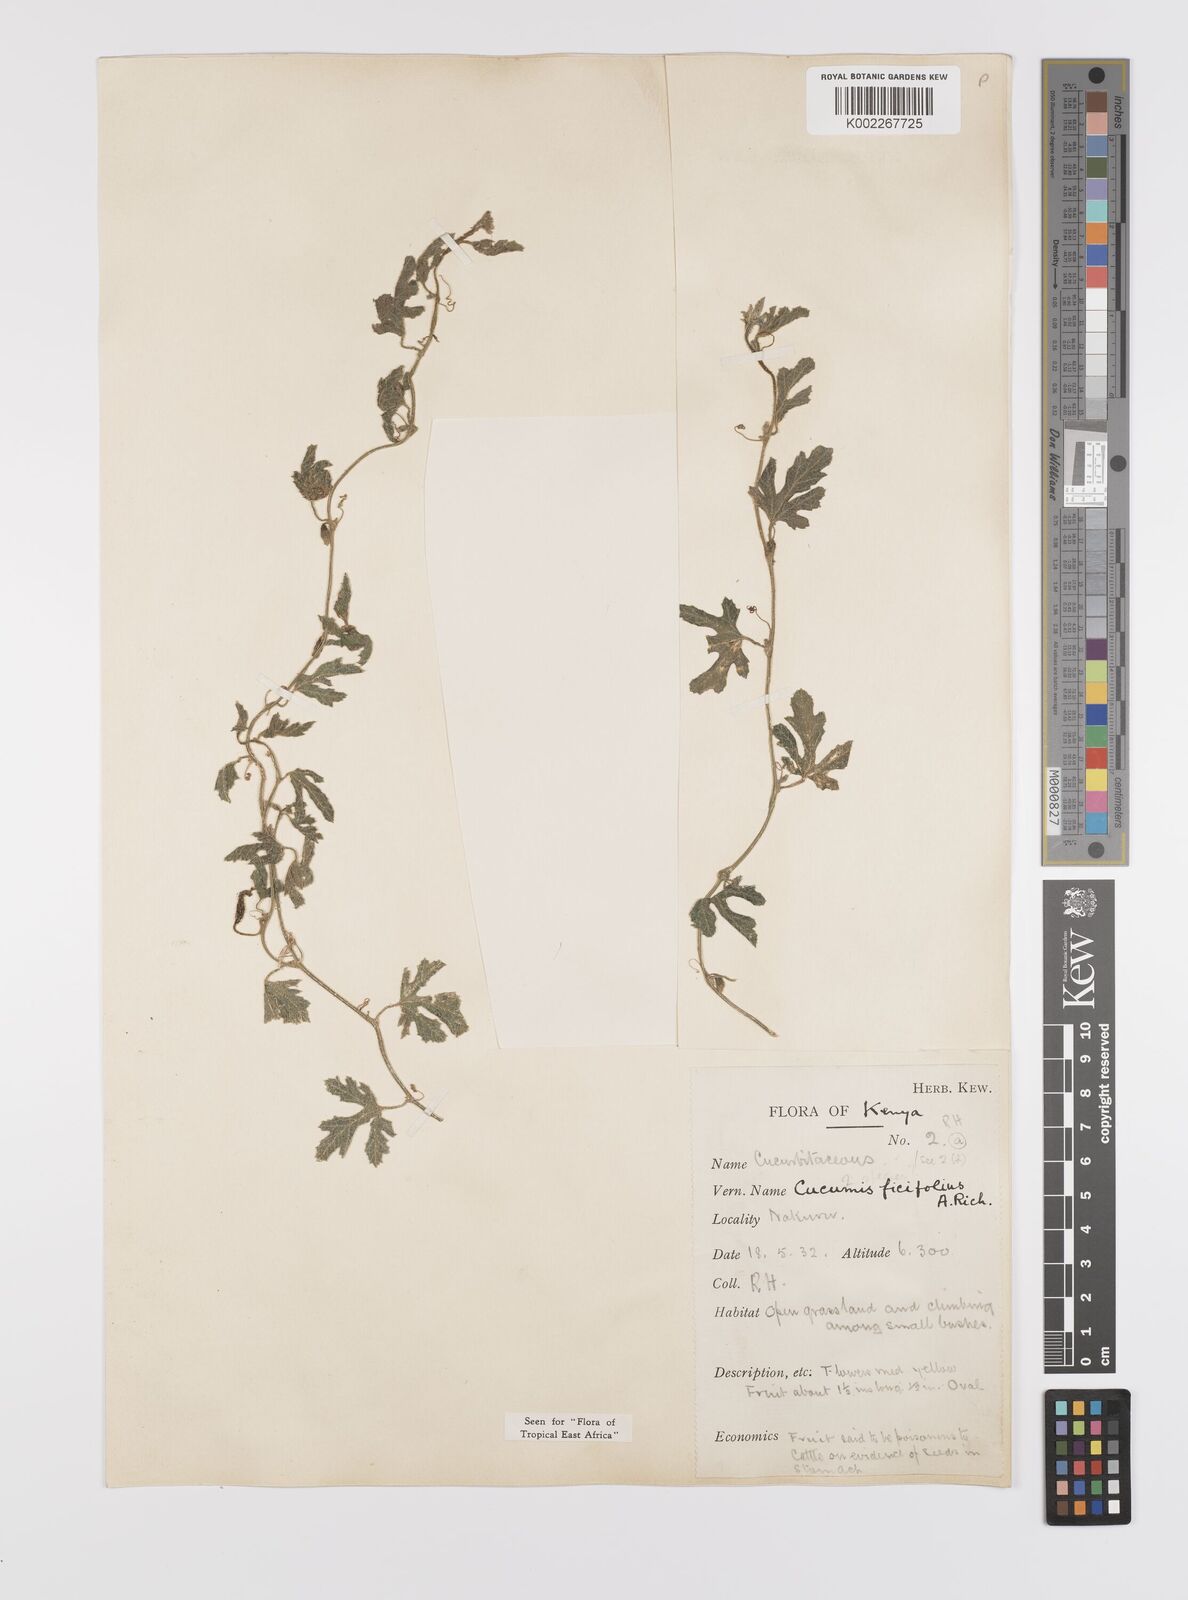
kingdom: Plantae
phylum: Tracheophyta
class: Magnoliopsida
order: Cucurbitales
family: Cucurbitaceae
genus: Cucumis
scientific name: Cucumis ficifolius
